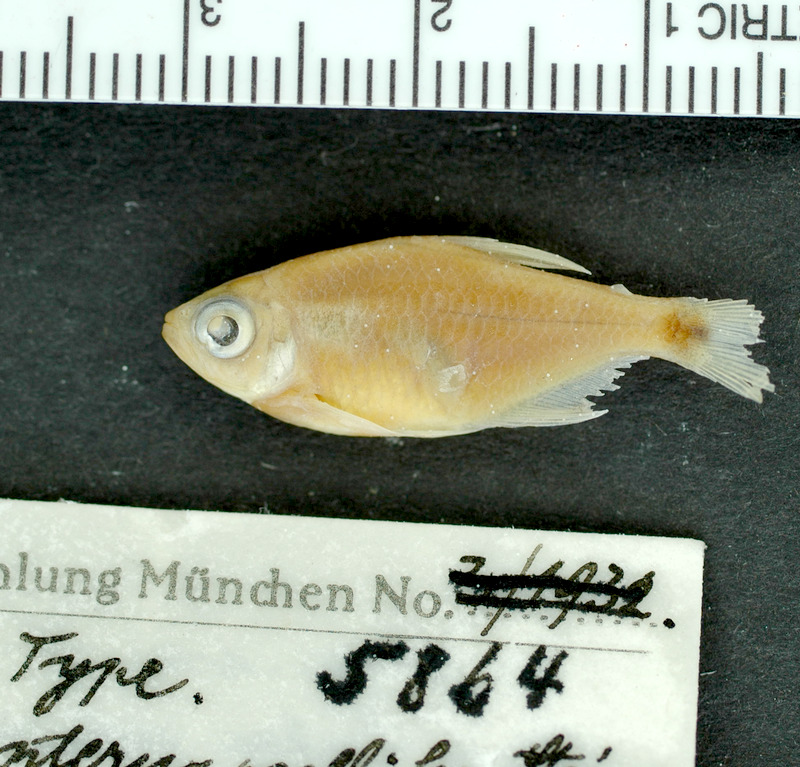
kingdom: Animalia
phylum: Chordata
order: Characiformes
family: Characidae
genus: Hemigrammus
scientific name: Hemigrammus ocellifer
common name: Beacon fish
